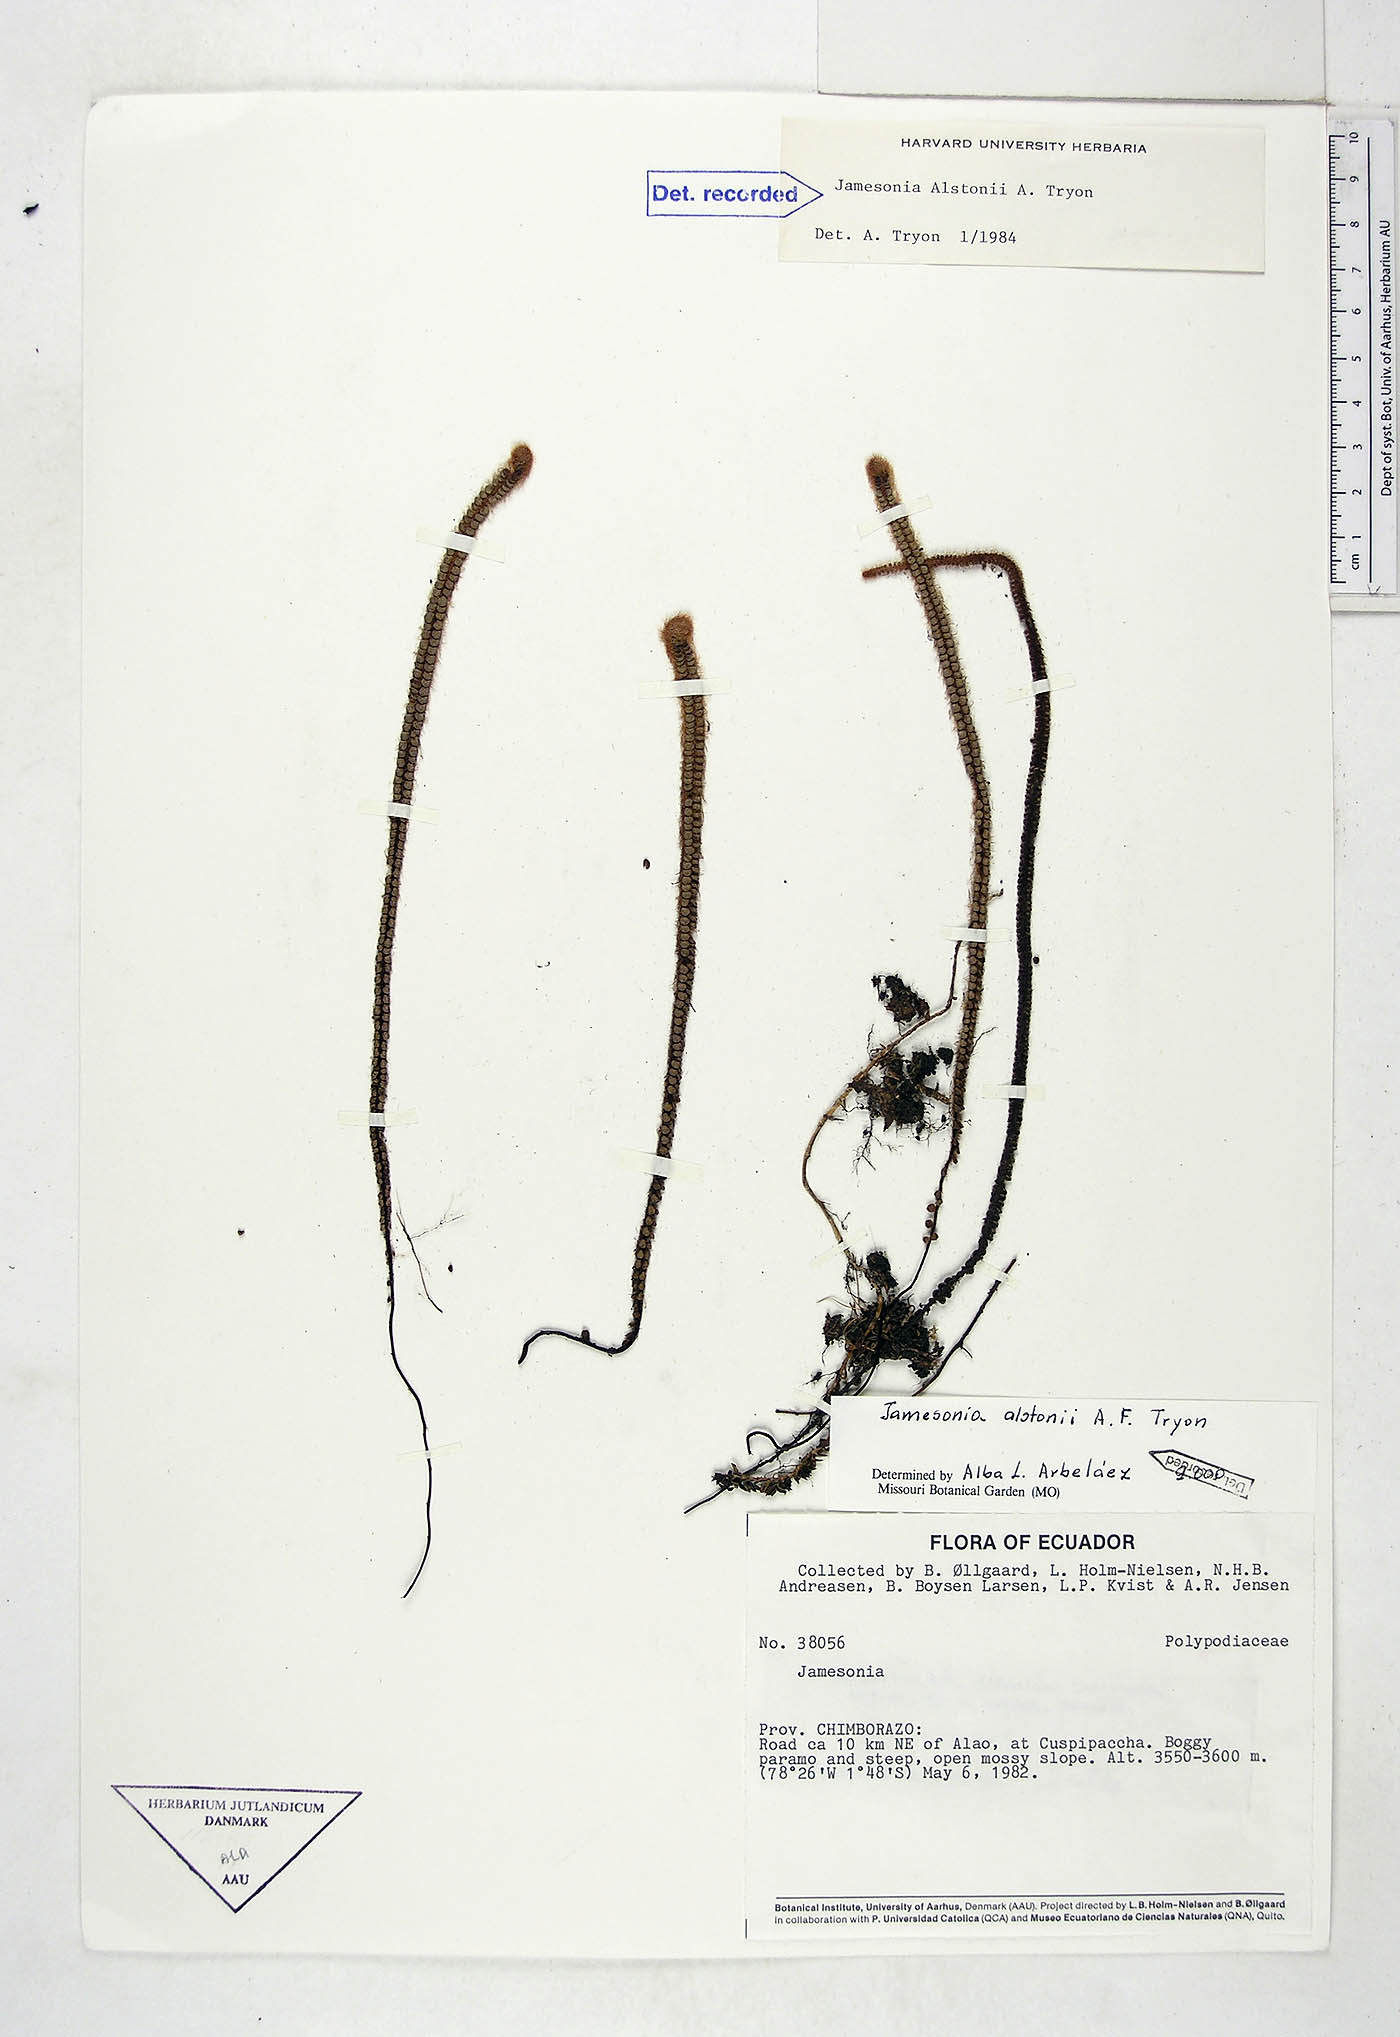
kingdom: Plantae
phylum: Tracheophyta
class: Polypodiopsida
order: Polypodiales
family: Pteridaceae
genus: Jamesonia
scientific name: Jamesonia alstonii
